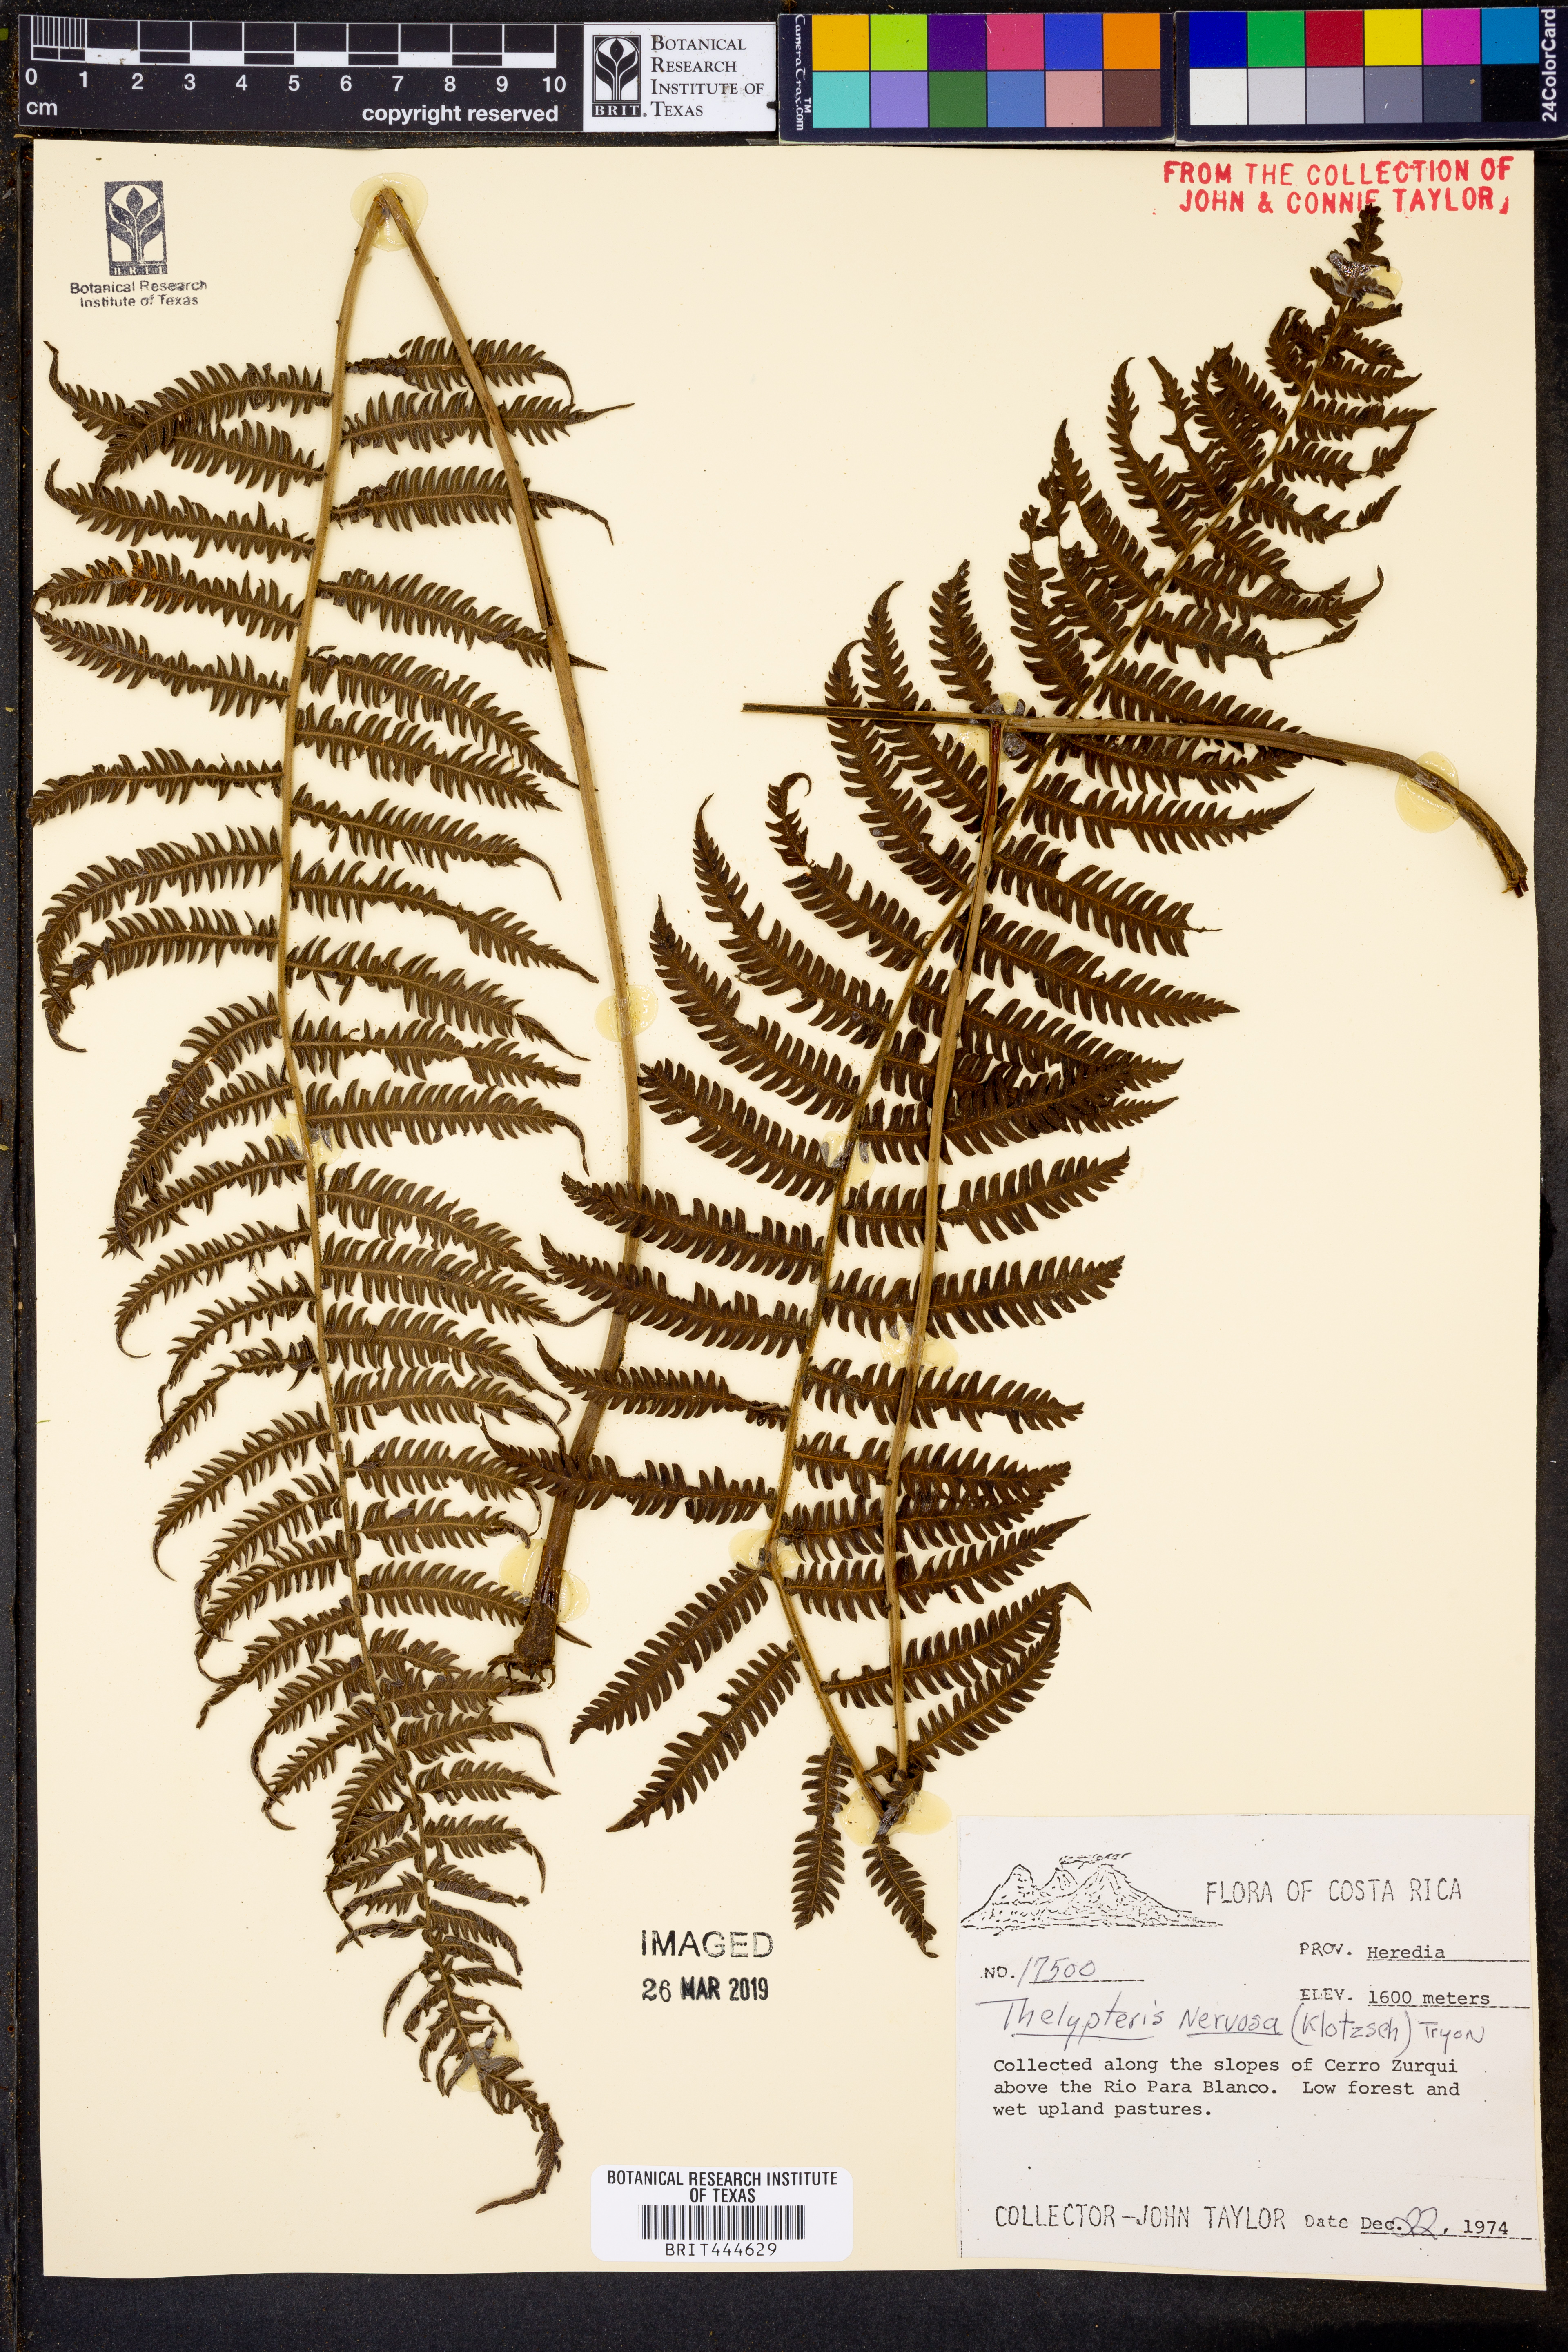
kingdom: Plantae
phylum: Tracheophyta
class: Polypodiopsida
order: Polypodiales
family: Thelypteridaceae
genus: Amauropelta
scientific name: Amauropelta rudis
